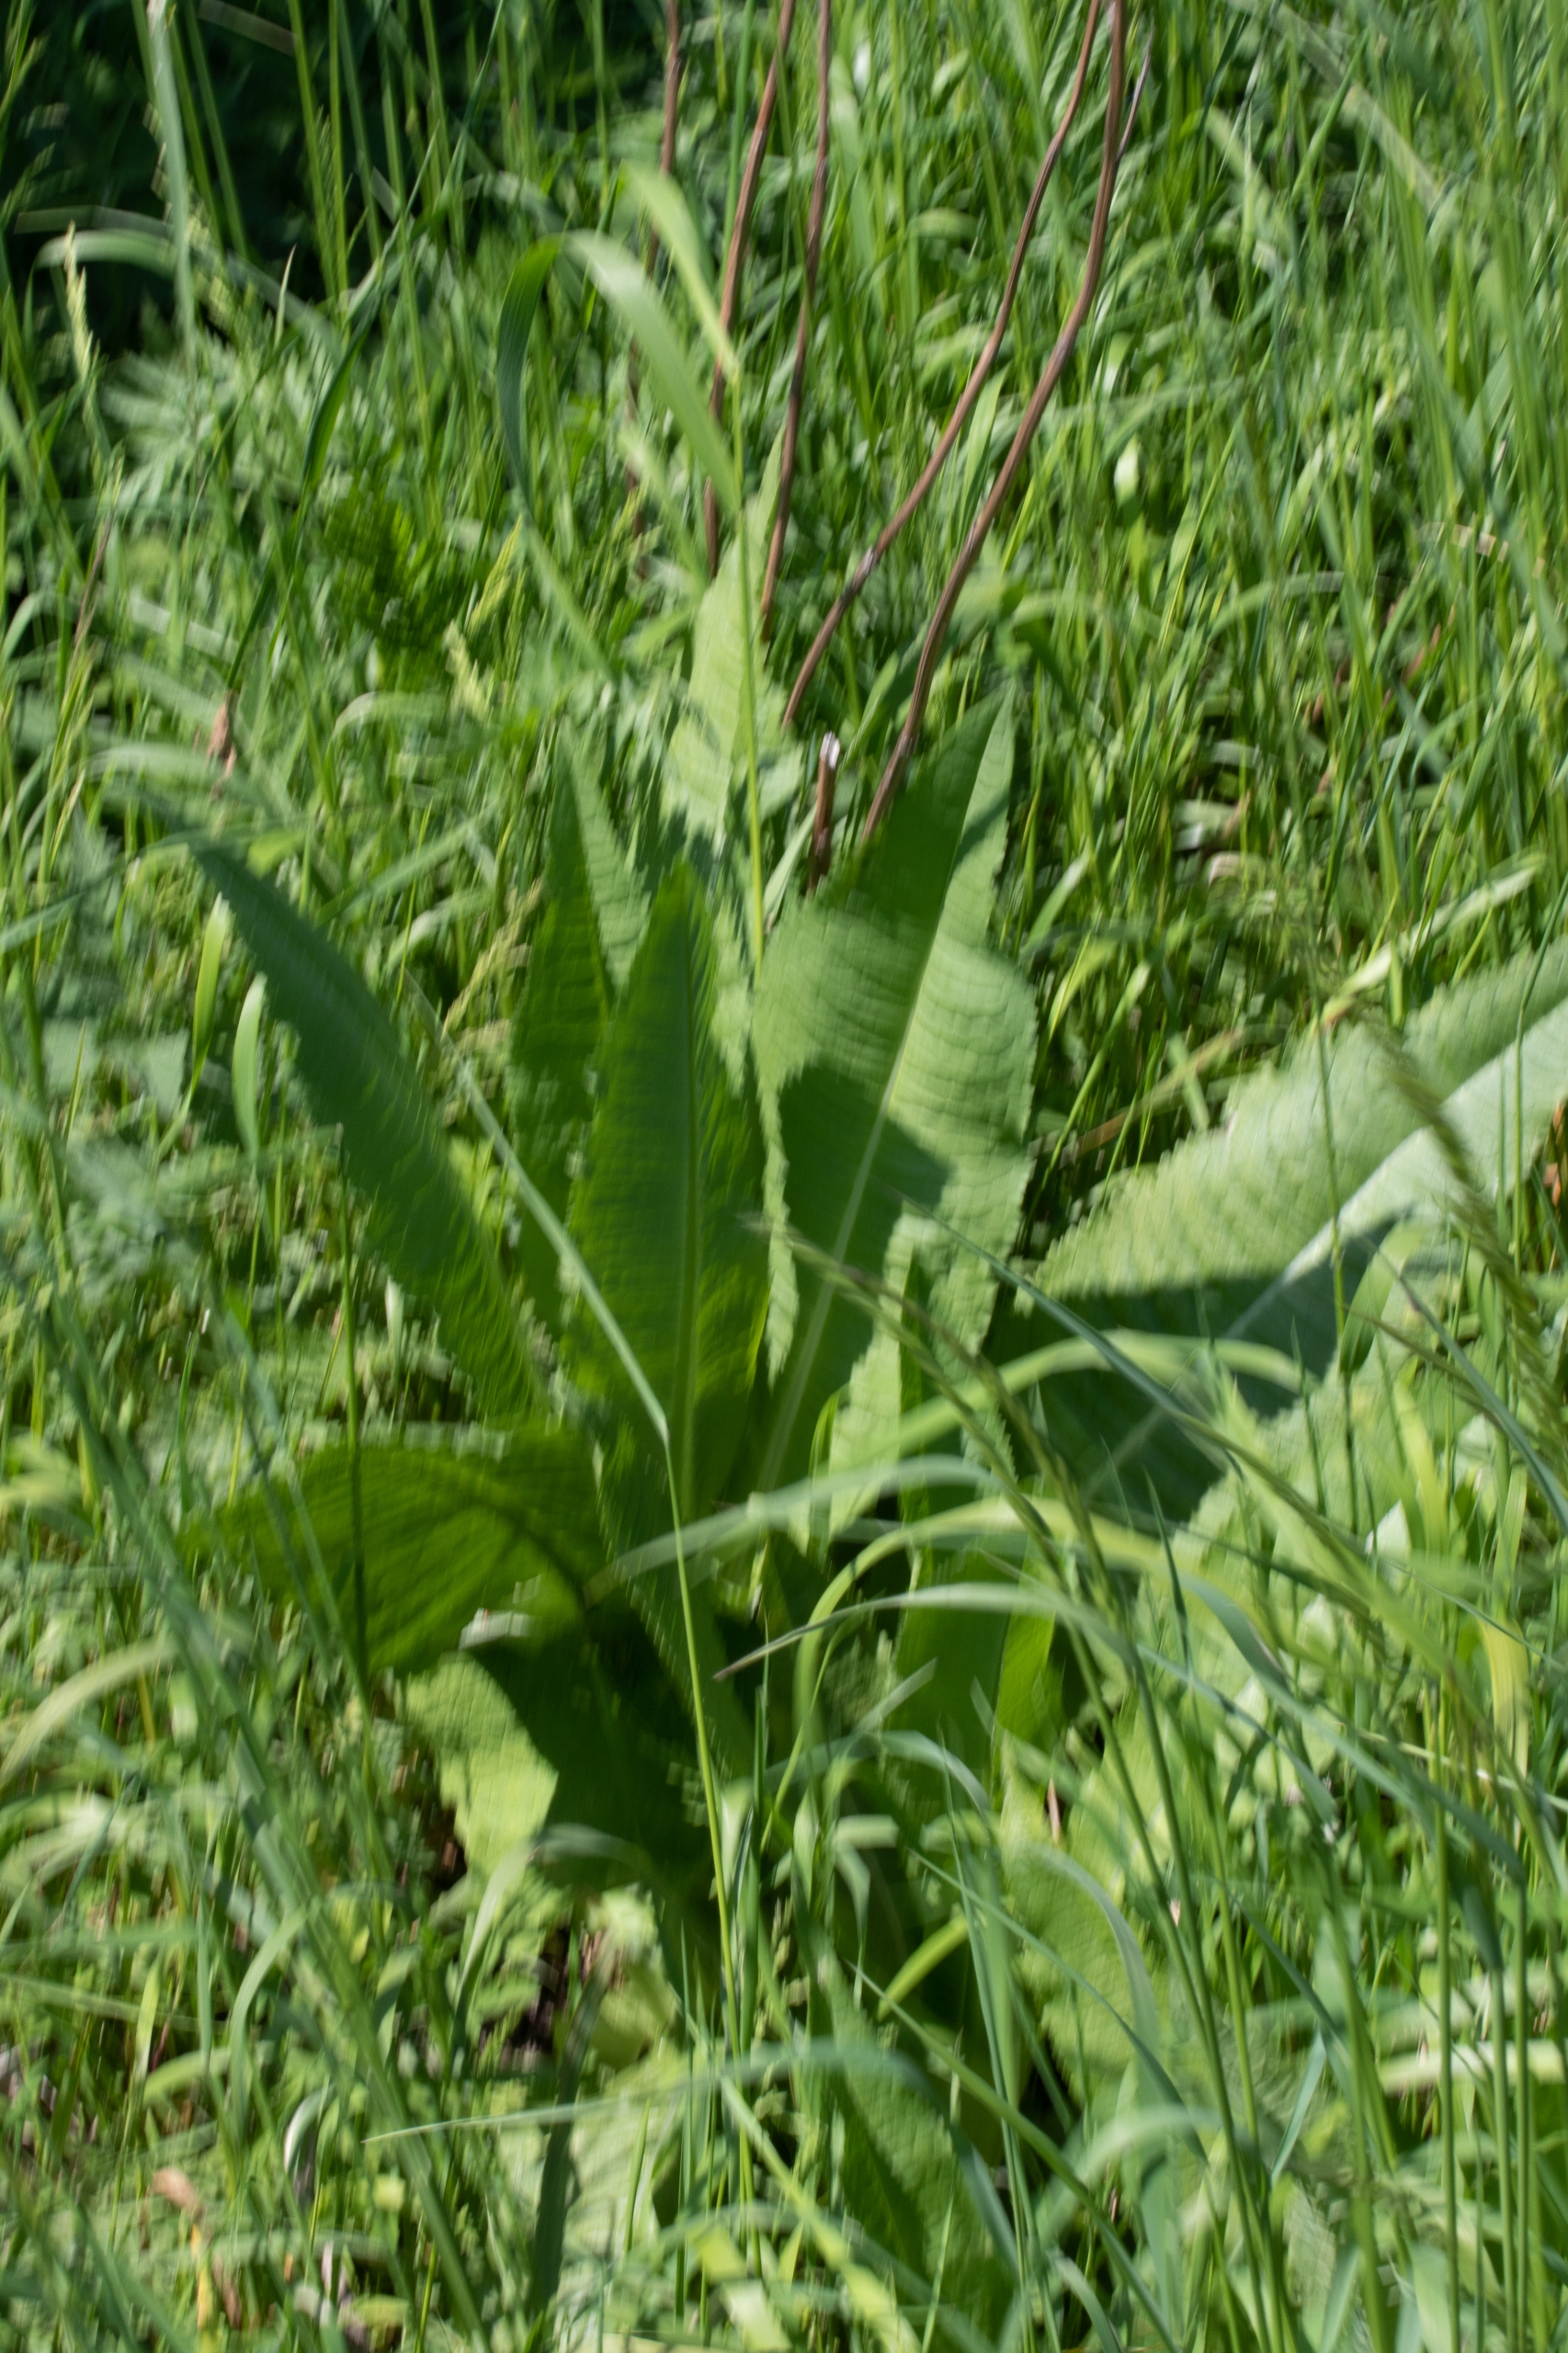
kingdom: Plantae
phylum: Tracheophyta
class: Magnoliopsida
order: Dipsacales
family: Caprifoliaceae
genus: Dipsacus
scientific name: Dipsacus fullonum
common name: Gærde-kartebolle
